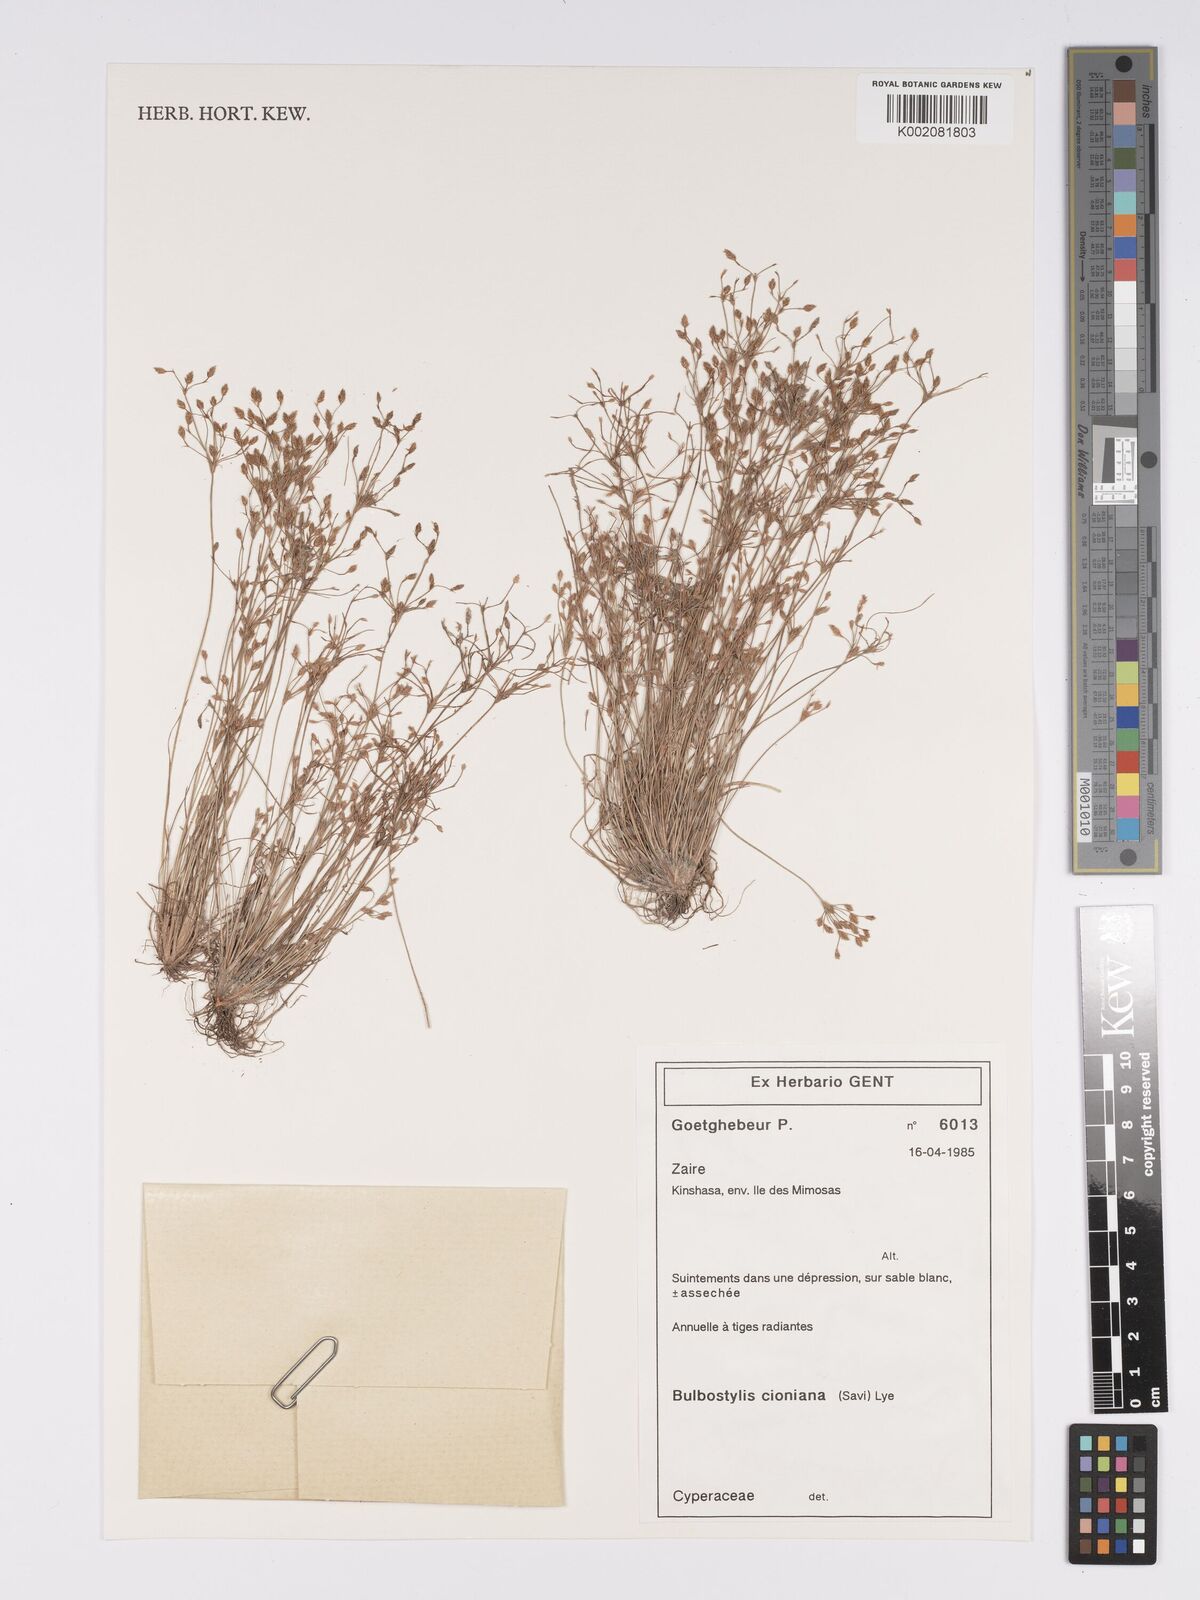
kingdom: Plantae
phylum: Tracheophyta
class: Liliopsida
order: Poales
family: Cyperaceae
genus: Bulbostylis
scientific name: Bulbostylis cioniana
